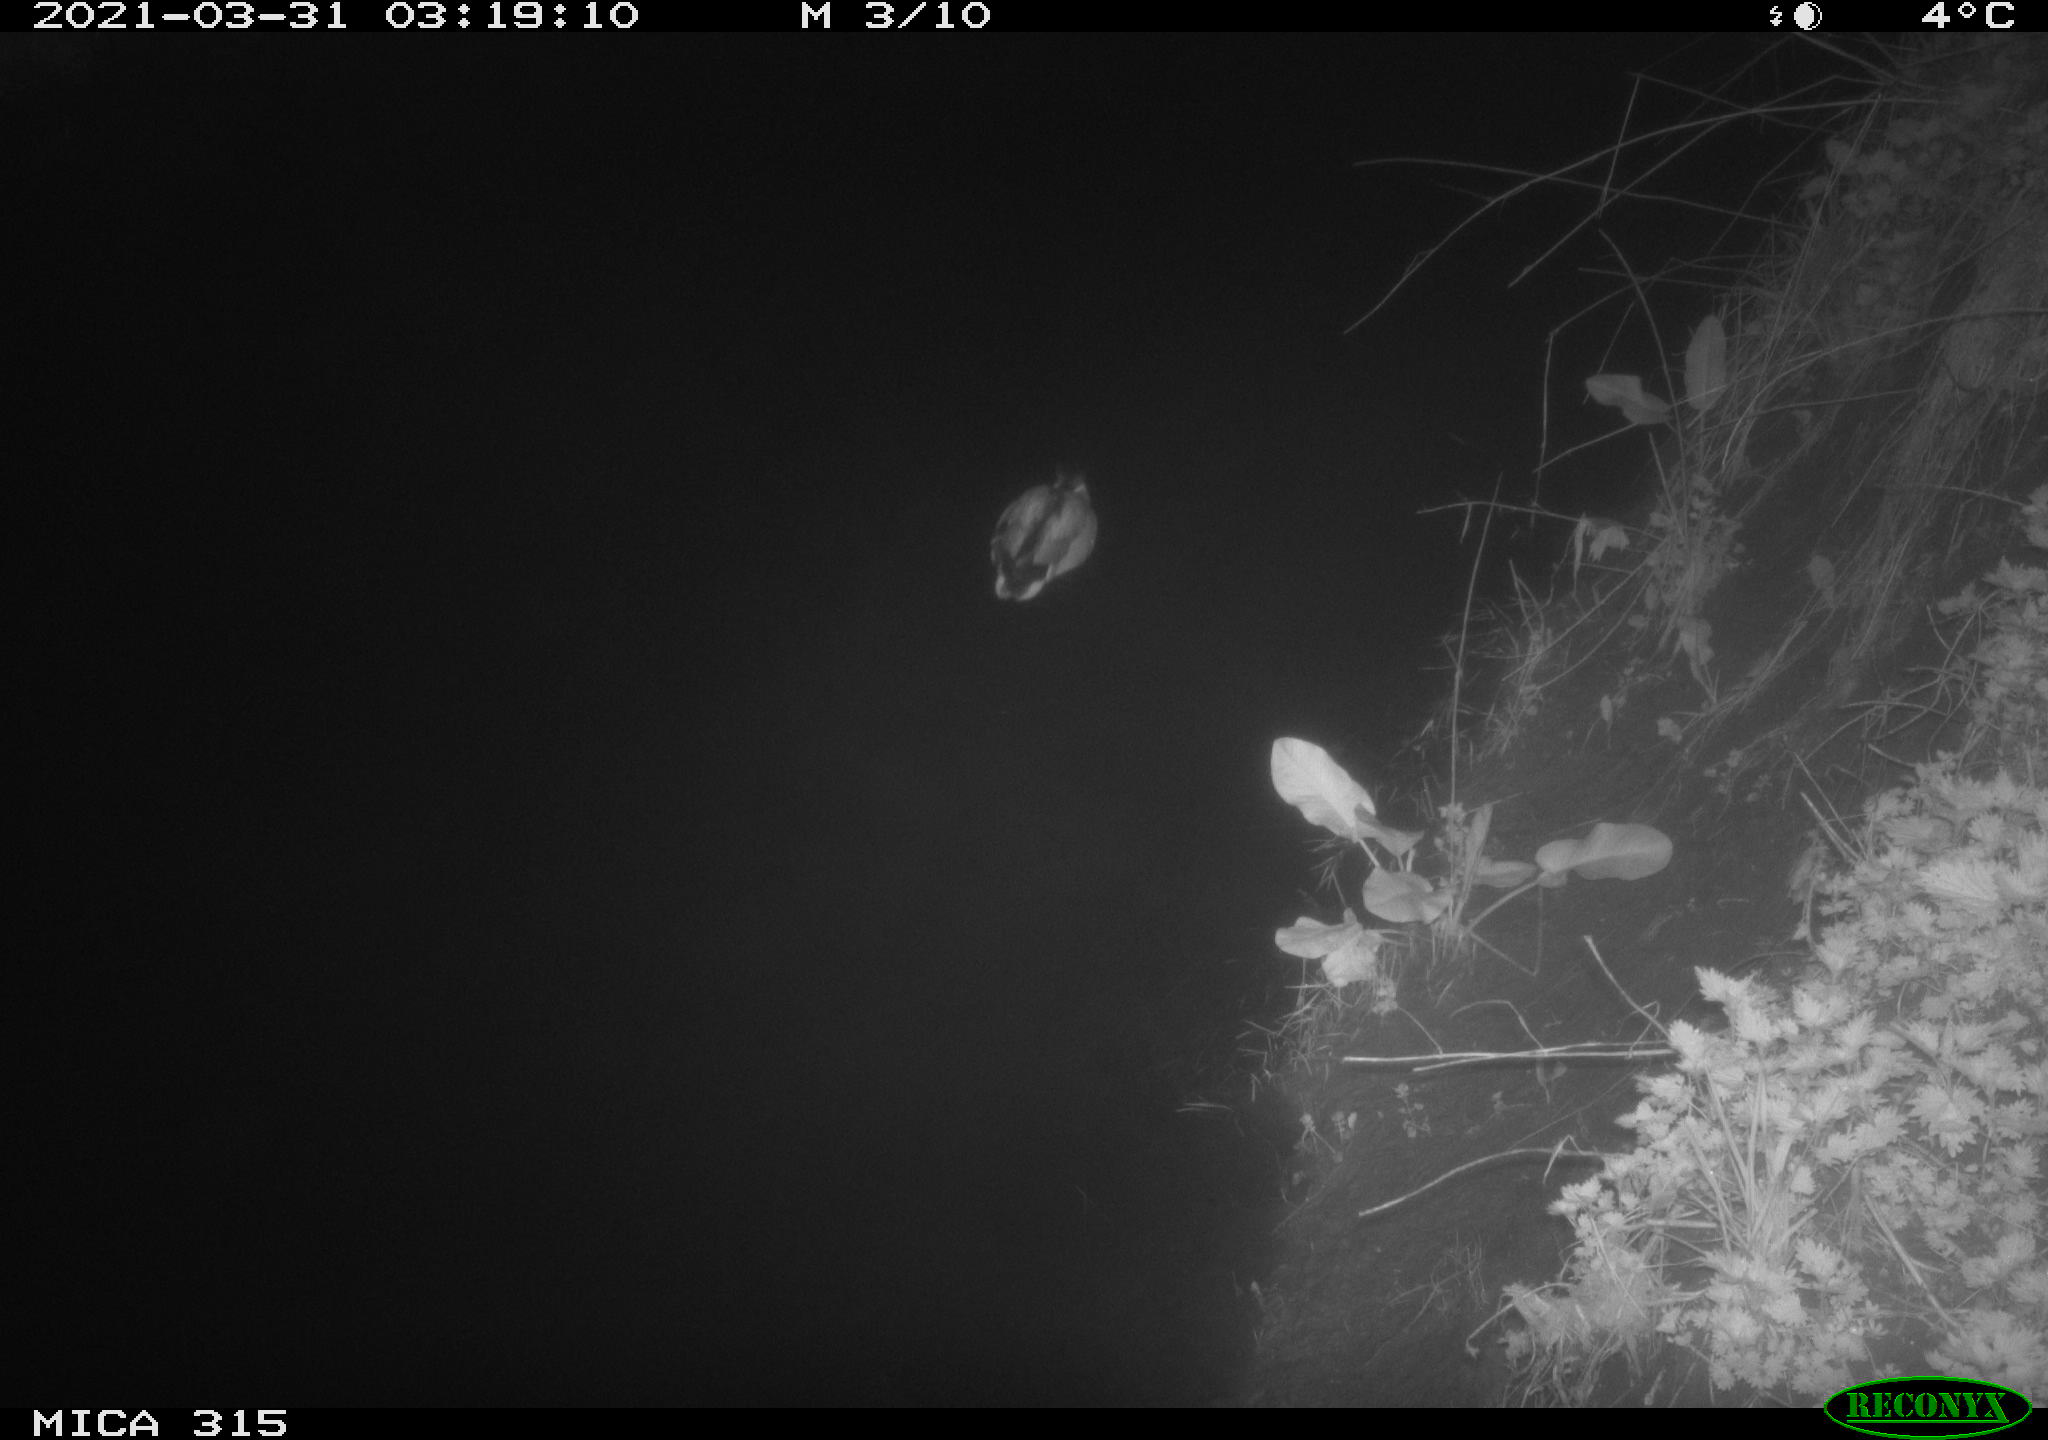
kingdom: Animalia
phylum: Chordata
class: Aves
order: Anseriformes
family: Anatidae
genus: Anas
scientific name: Anas platyrhynchos
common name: Mallard
